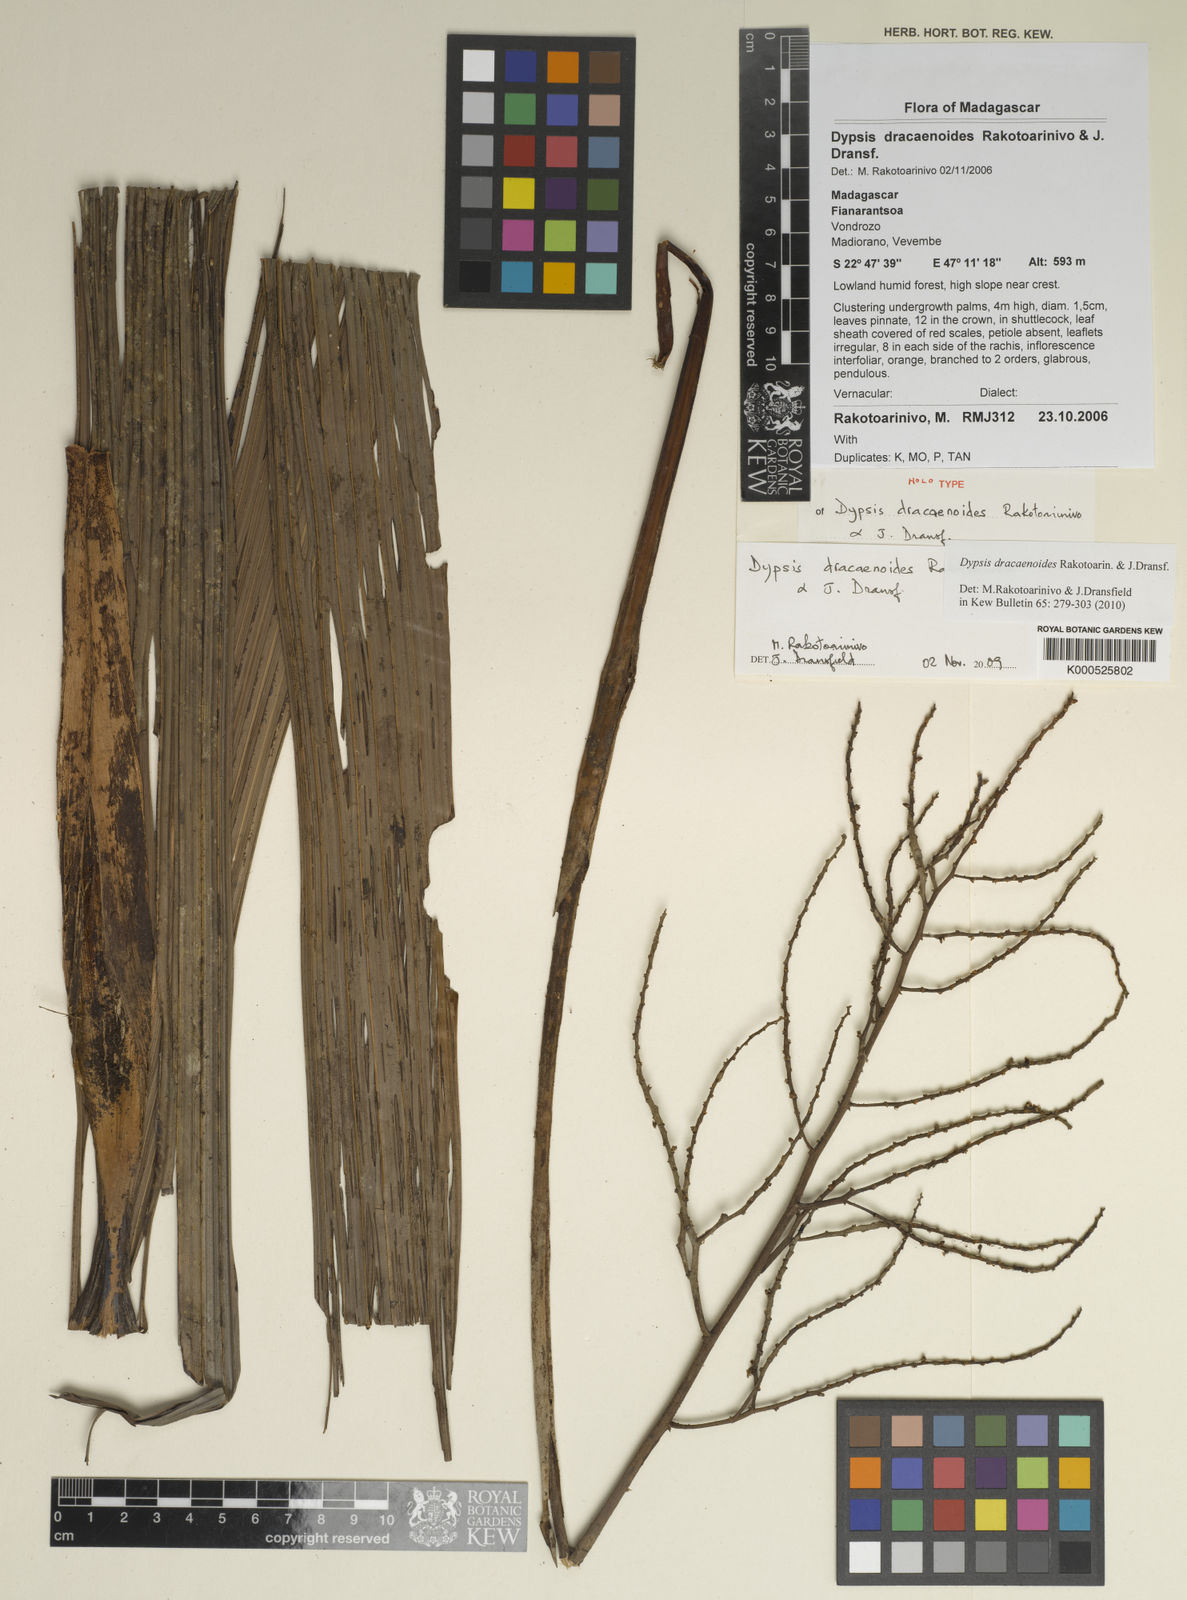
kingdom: Plantae
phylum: Tracheophyta
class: Liliopsida
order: Arecales
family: Arecaceae
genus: Dypsis
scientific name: Dypsis dracaenoides
